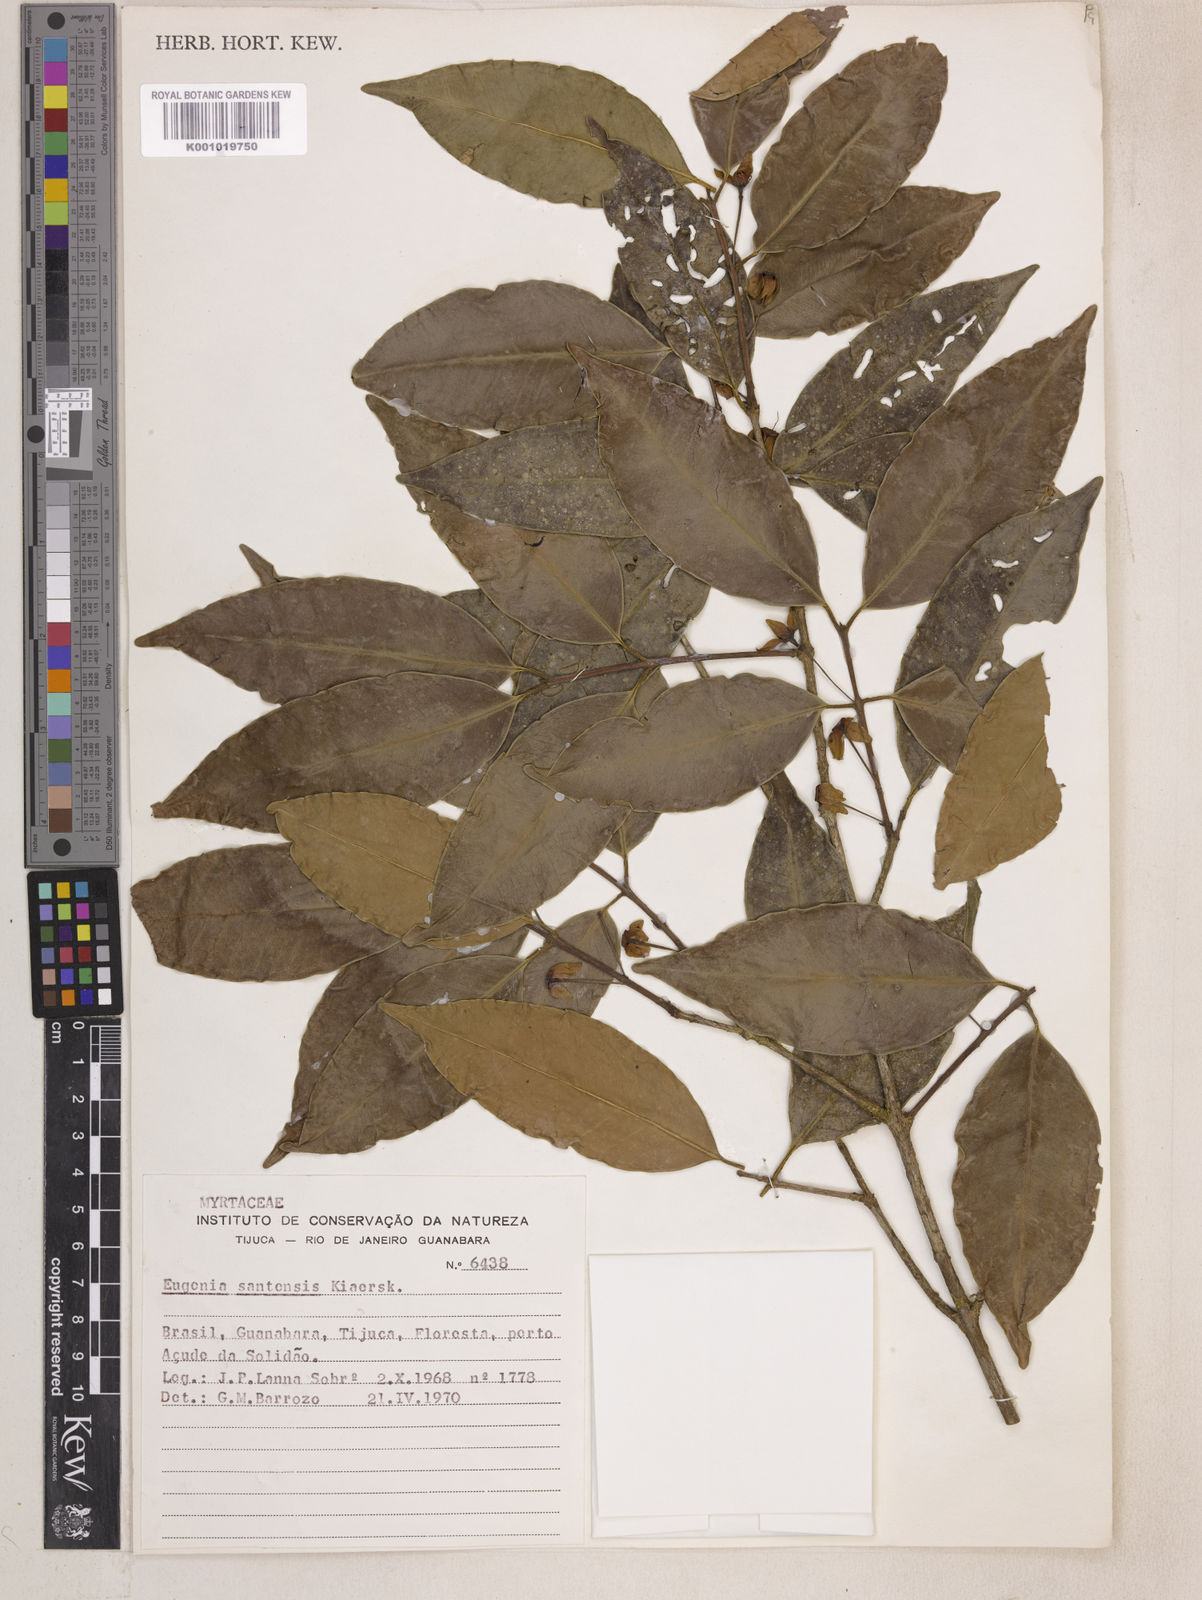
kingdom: Plantae
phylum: Tracheophyta
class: Magnoliopsida
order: Myrtales
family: Myrtaceae
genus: Eugenia
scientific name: Eugenia bunchosiifolia
